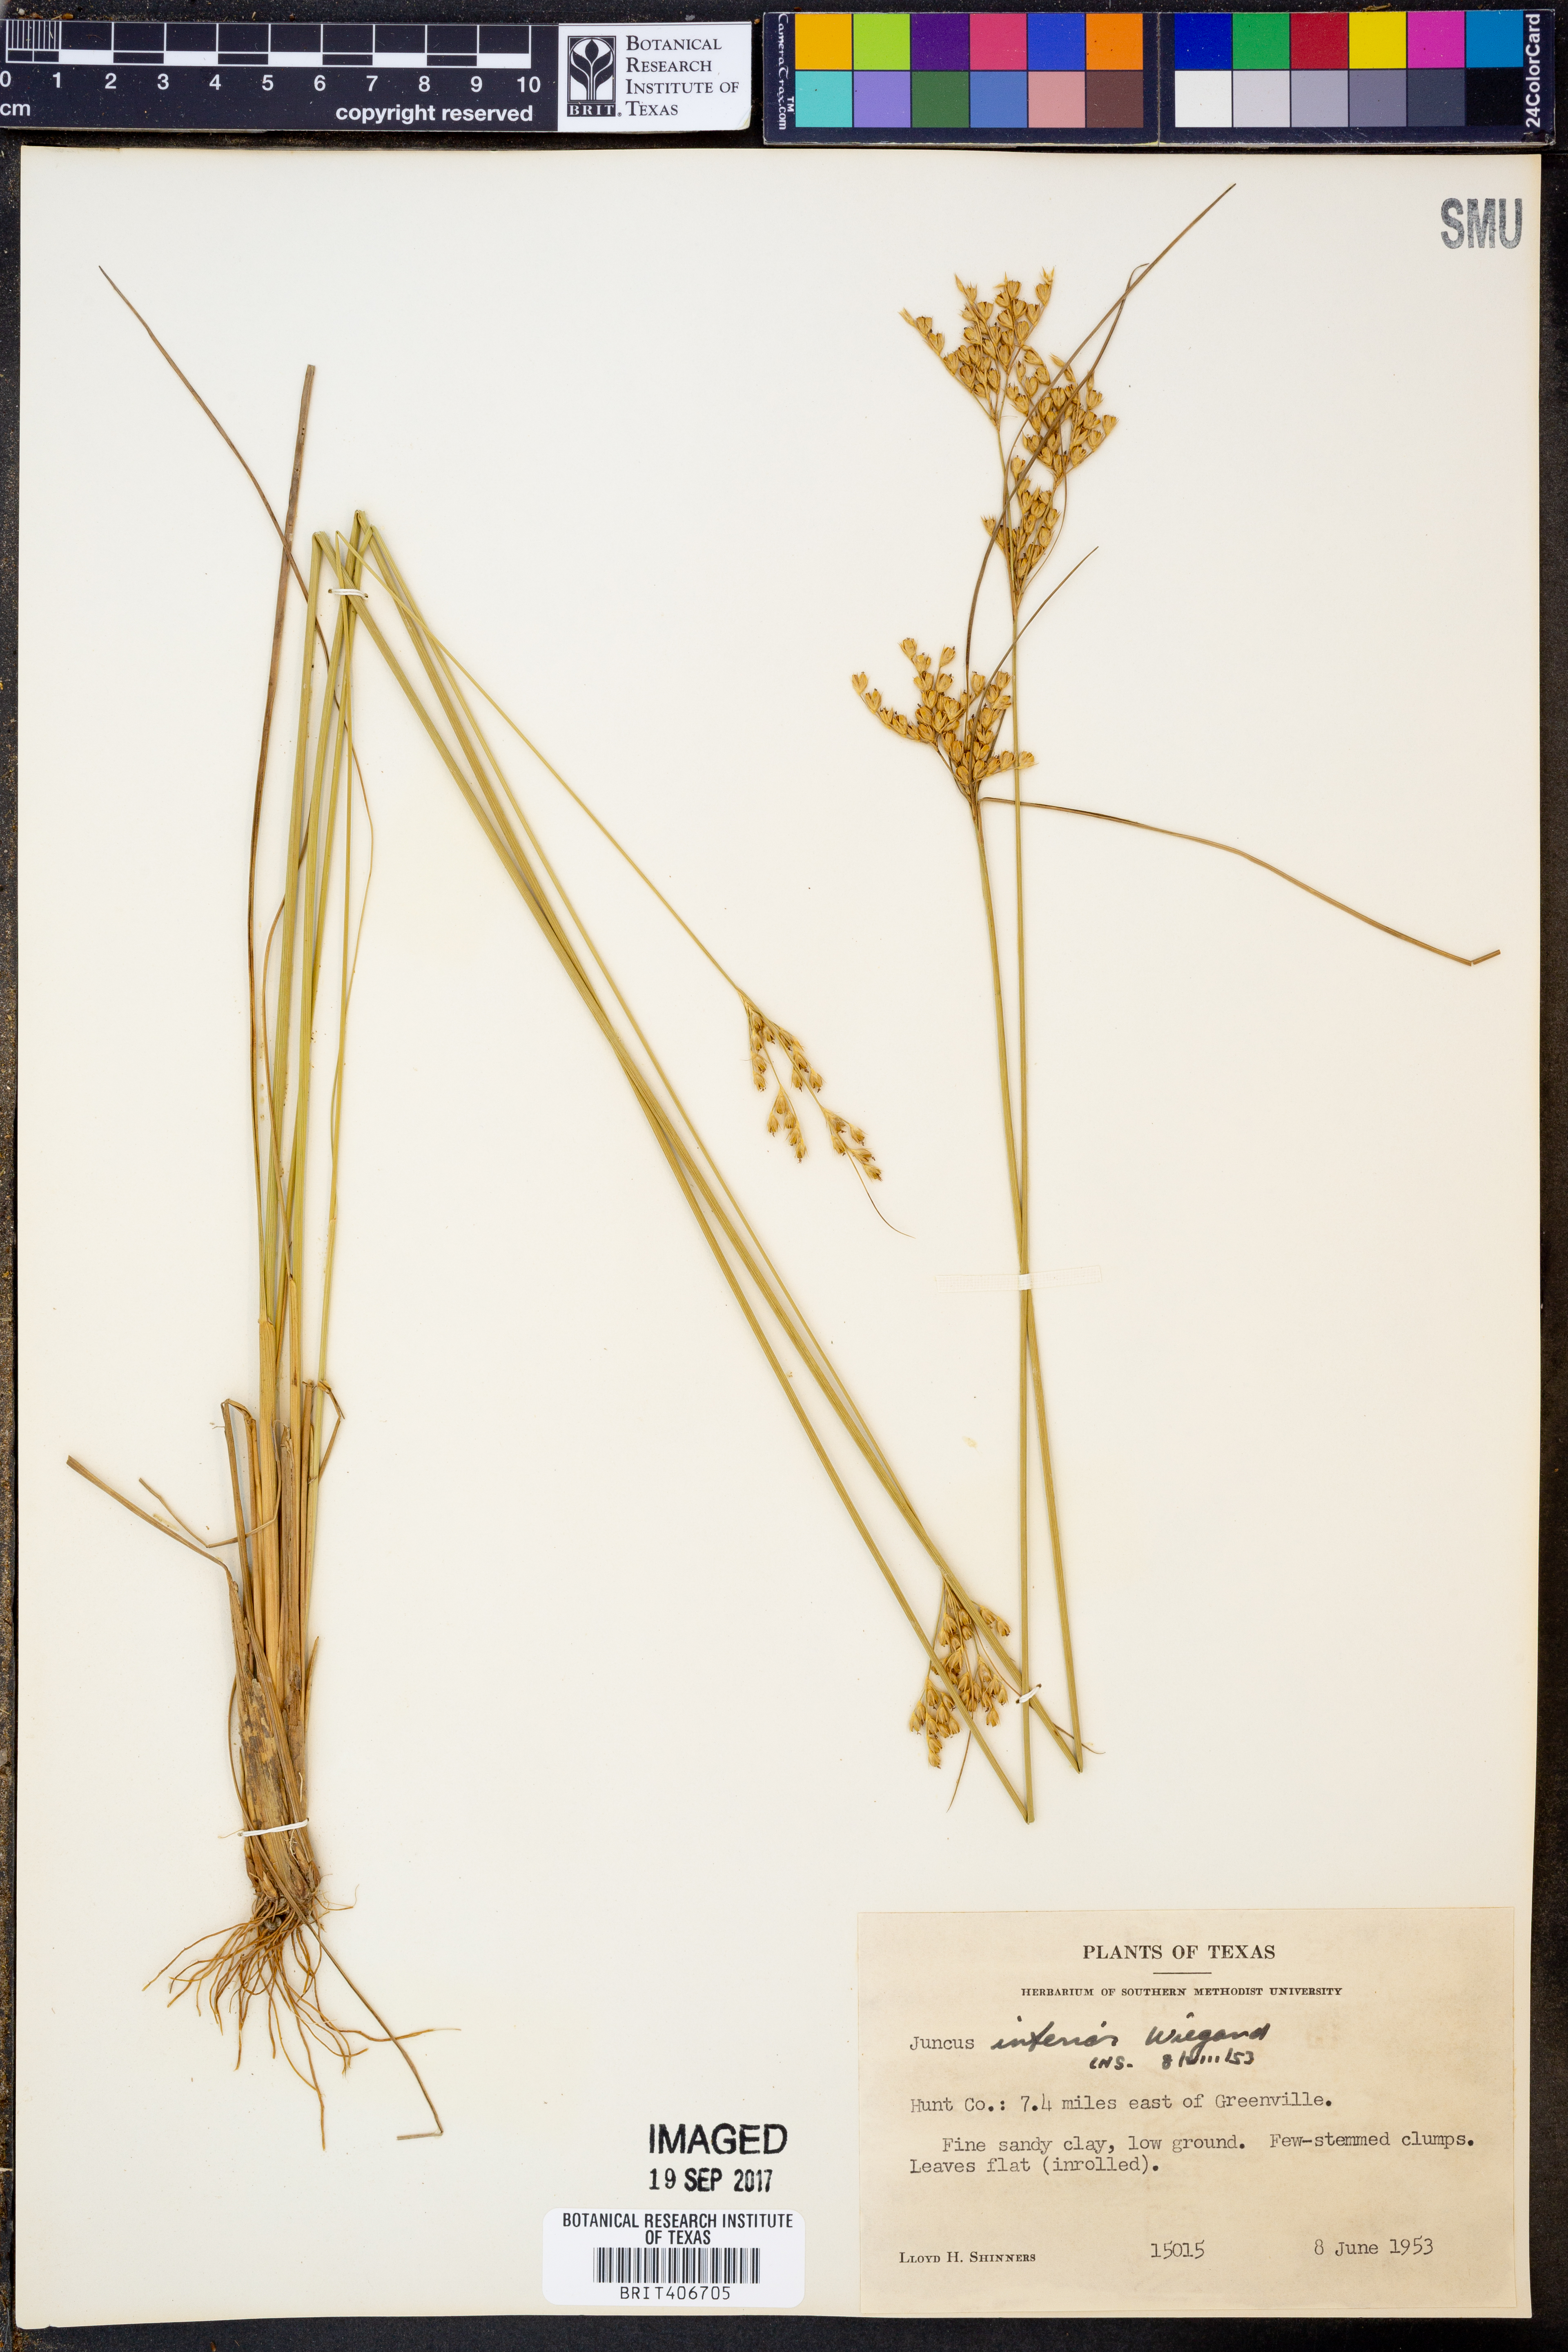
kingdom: Plantae
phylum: Tracheophyta
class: Liliopsida
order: Poales
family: Juncaceae
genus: Juncus
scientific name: Juncus interior
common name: Interior rush
